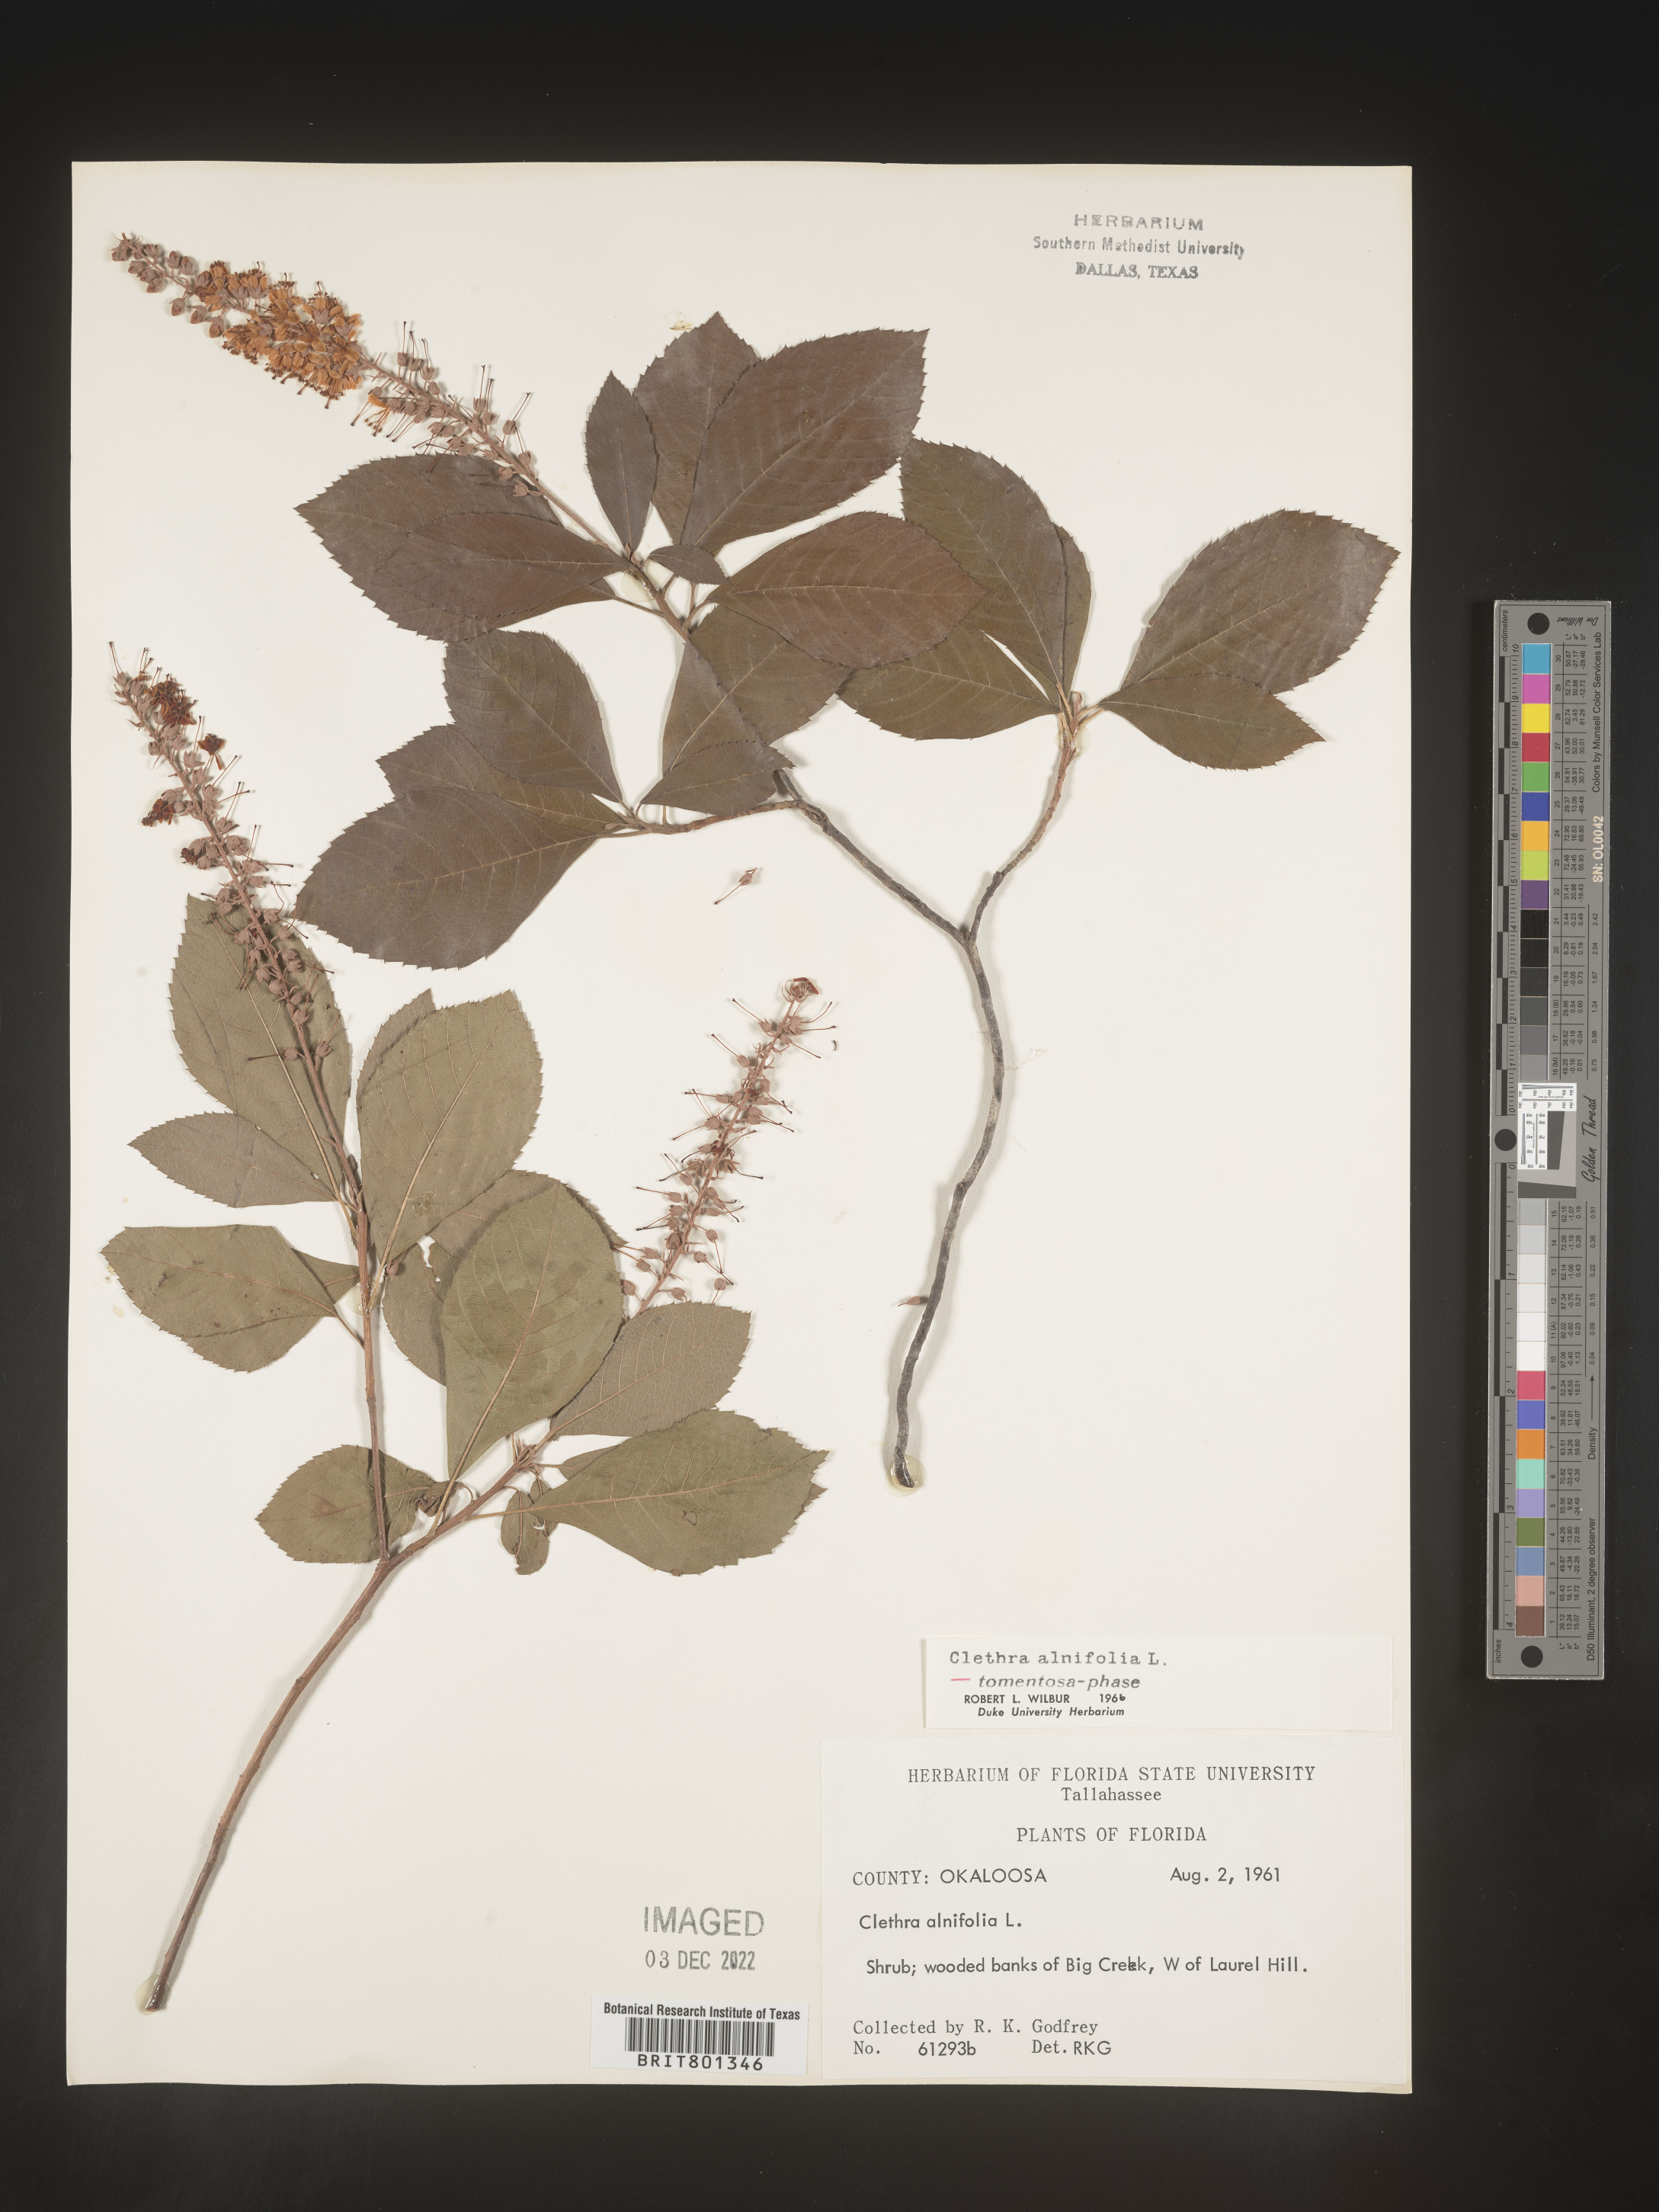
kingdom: Plantae
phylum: Tracheophyta
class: Magnoliopsida
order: Ericales
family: Clethraceae
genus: Clethra
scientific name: Clethra alnifolia
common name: Sweet pepperbush
